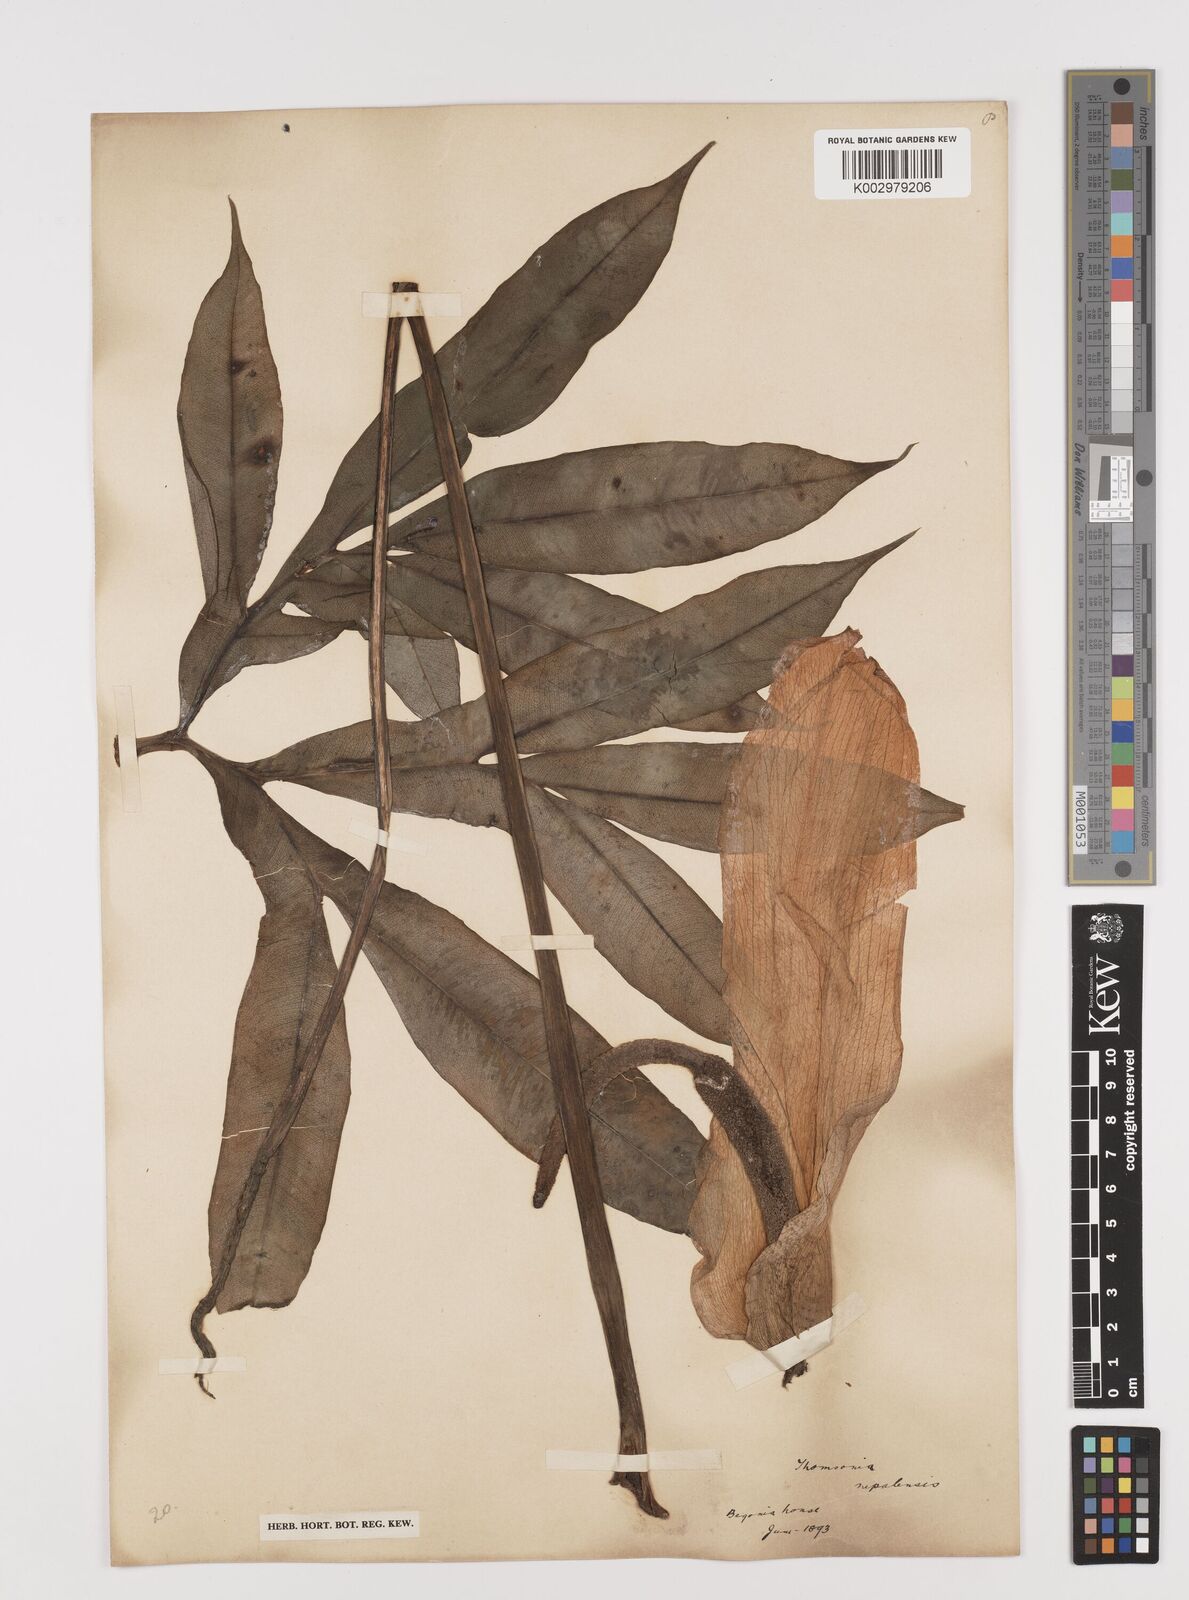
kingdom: Plantae
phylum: Tracheophyta
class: Liliopsida
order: Alismatales
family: Araceae
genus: Amorphophallus
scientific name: Amorphophallus napalensis
